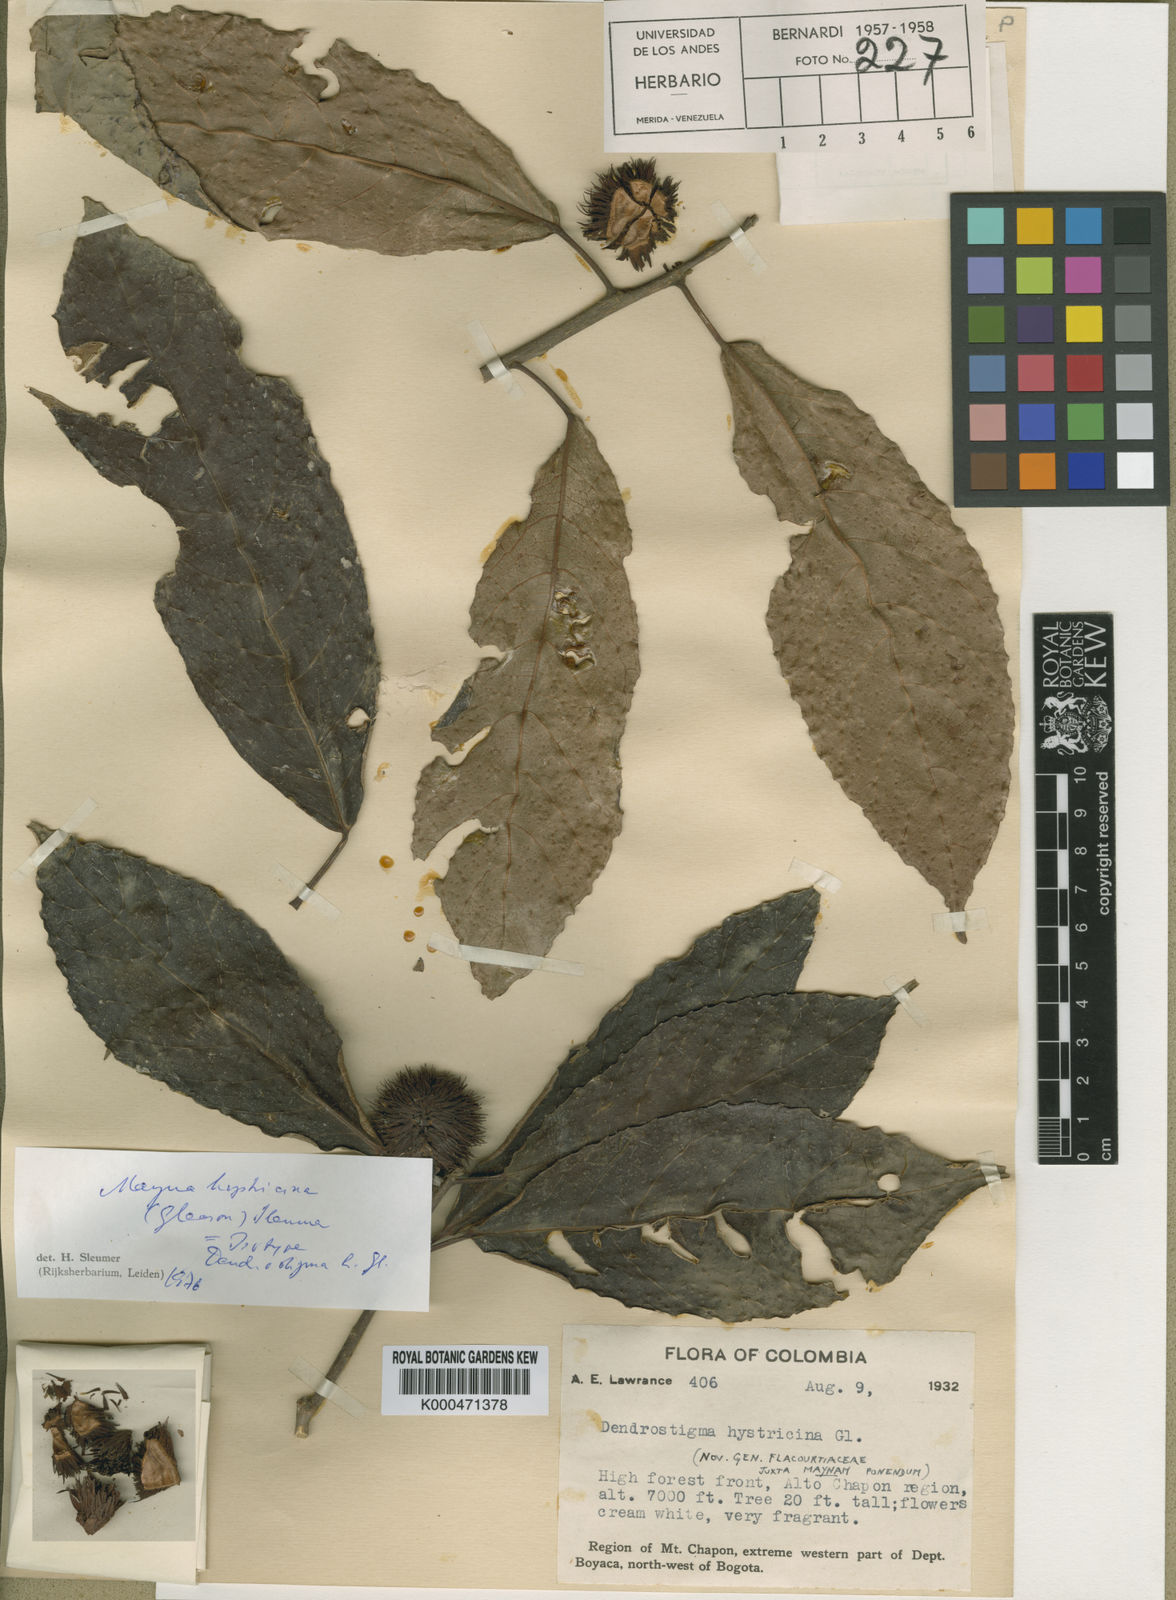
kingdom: Plantae
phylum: Tracheophyta
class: Magnoliopsida
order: Malpighiales
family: Achariaceae
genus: Mayna
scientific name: Mayna hystricina
